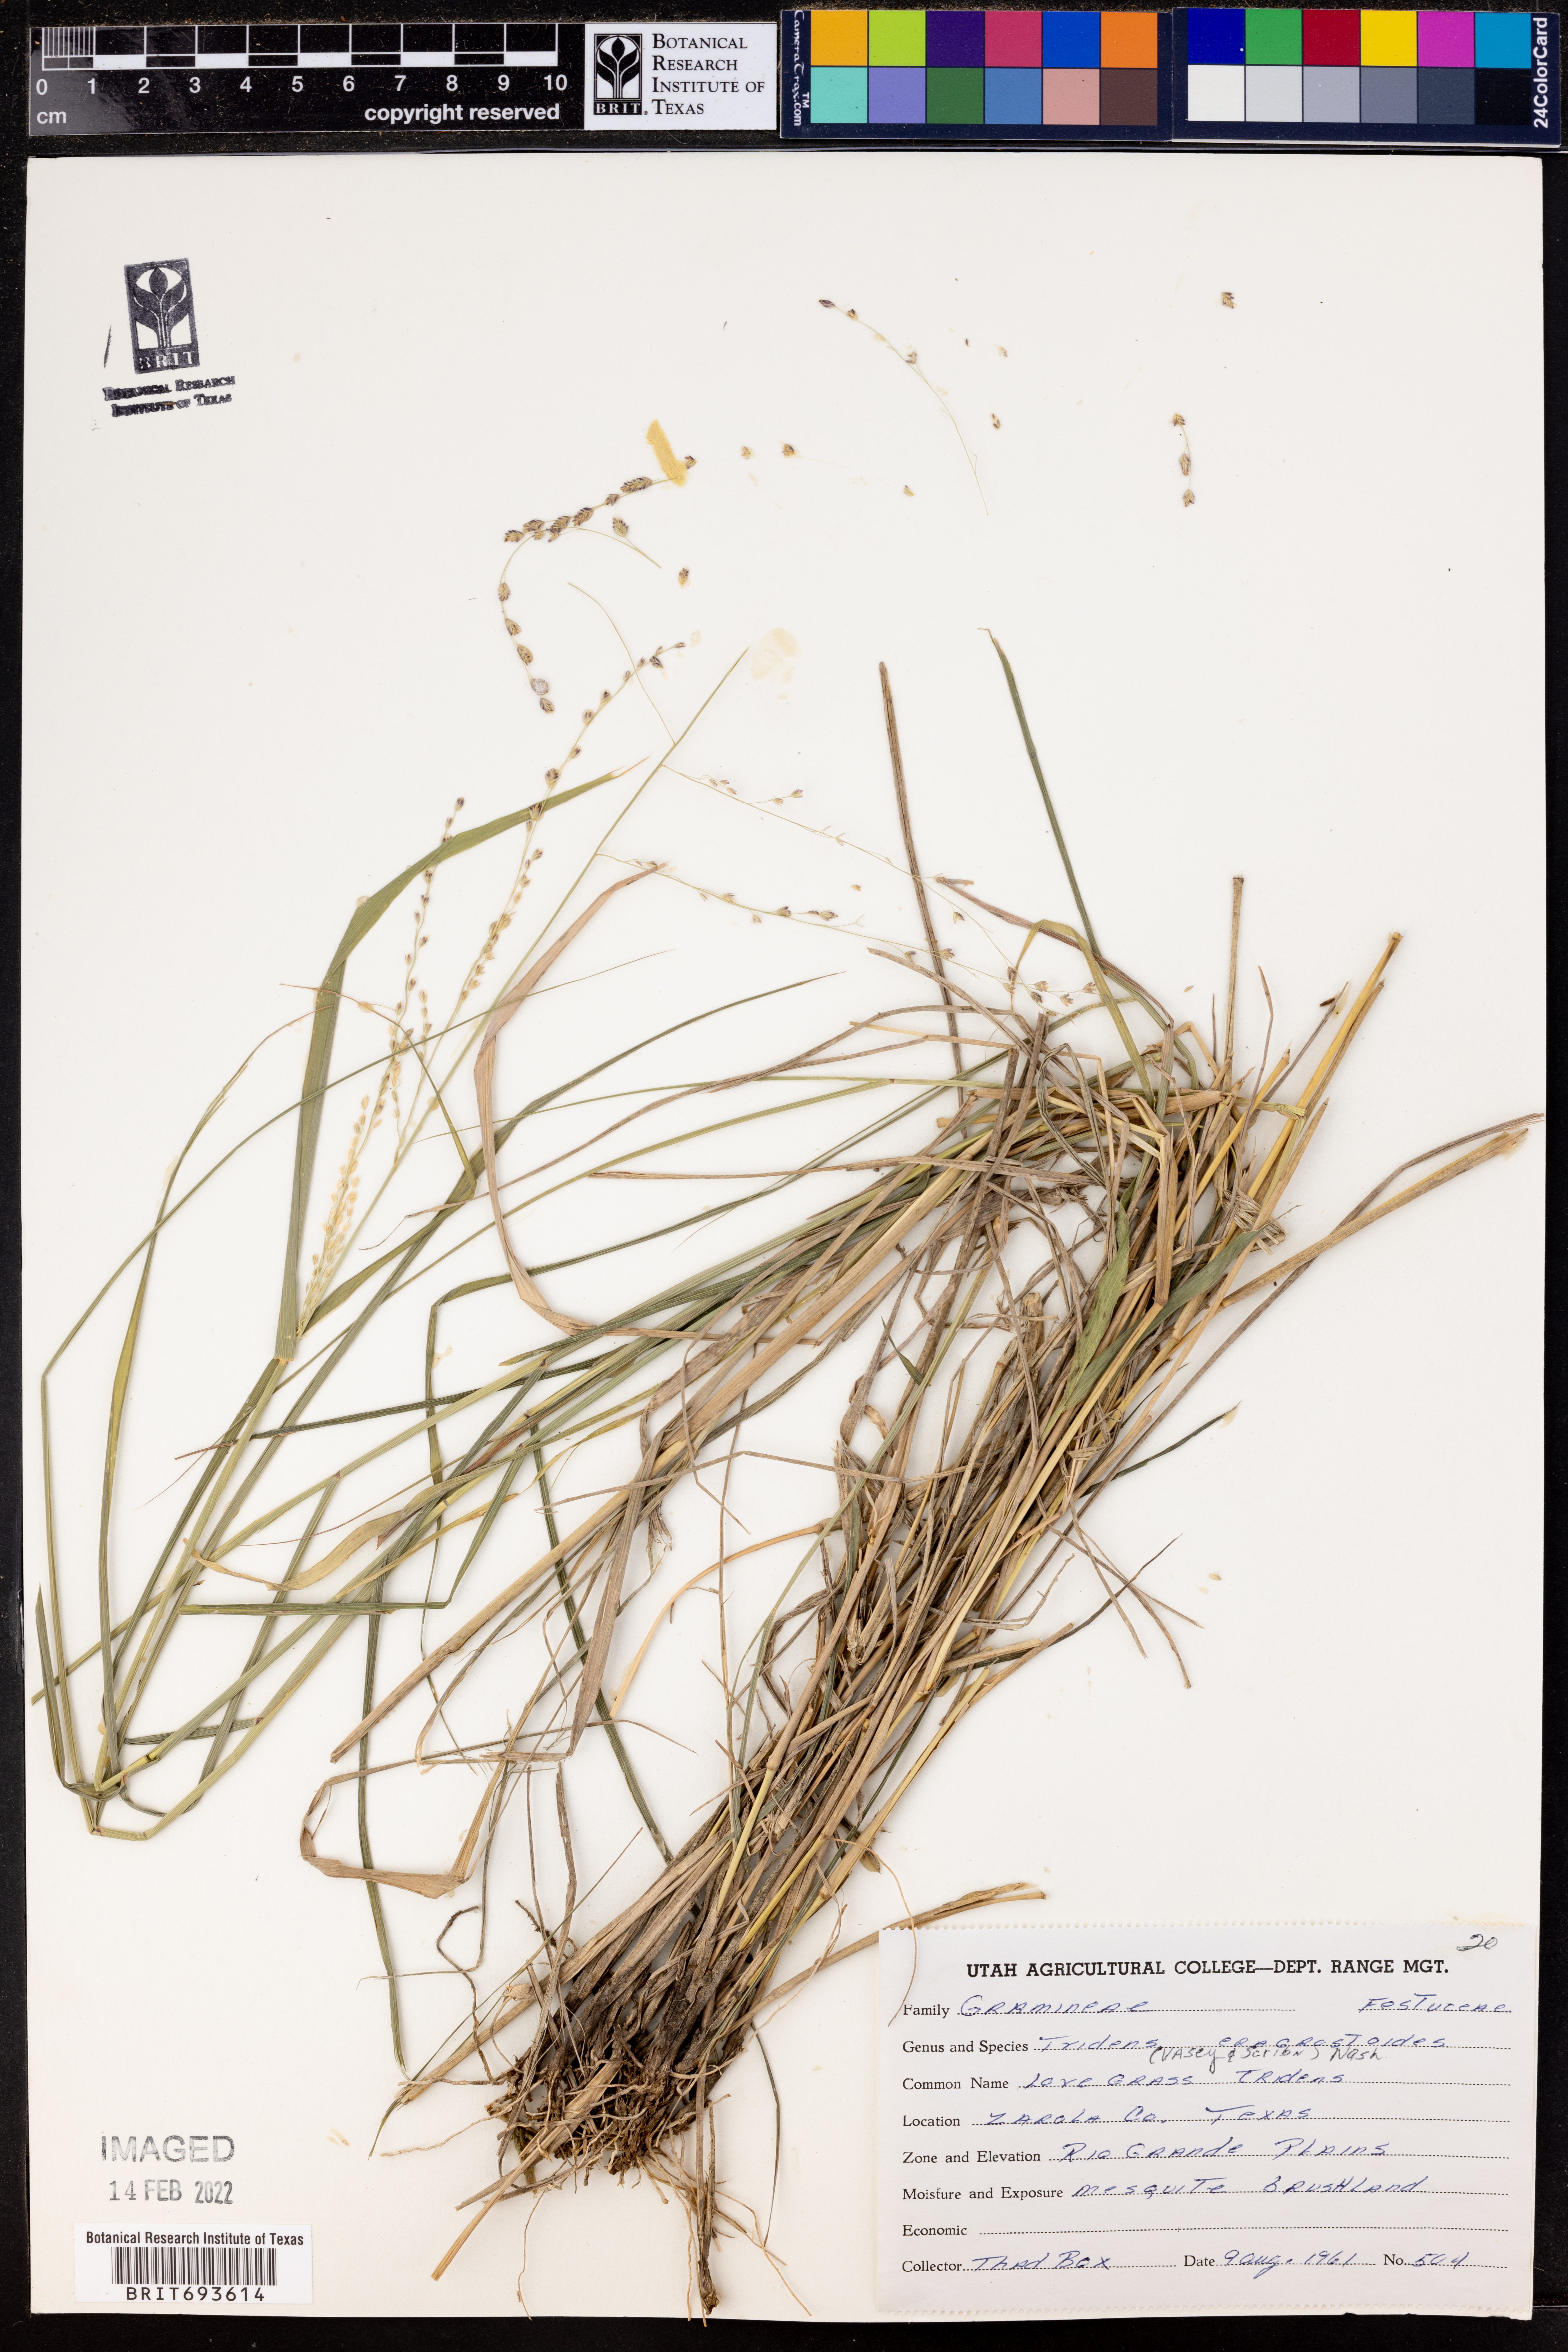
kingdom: Plantae
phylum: Tracheophyta
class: Liliopsida
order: Poales
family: Poaceae
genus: Triplasiella
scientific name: Triplasiella eragrostoides
